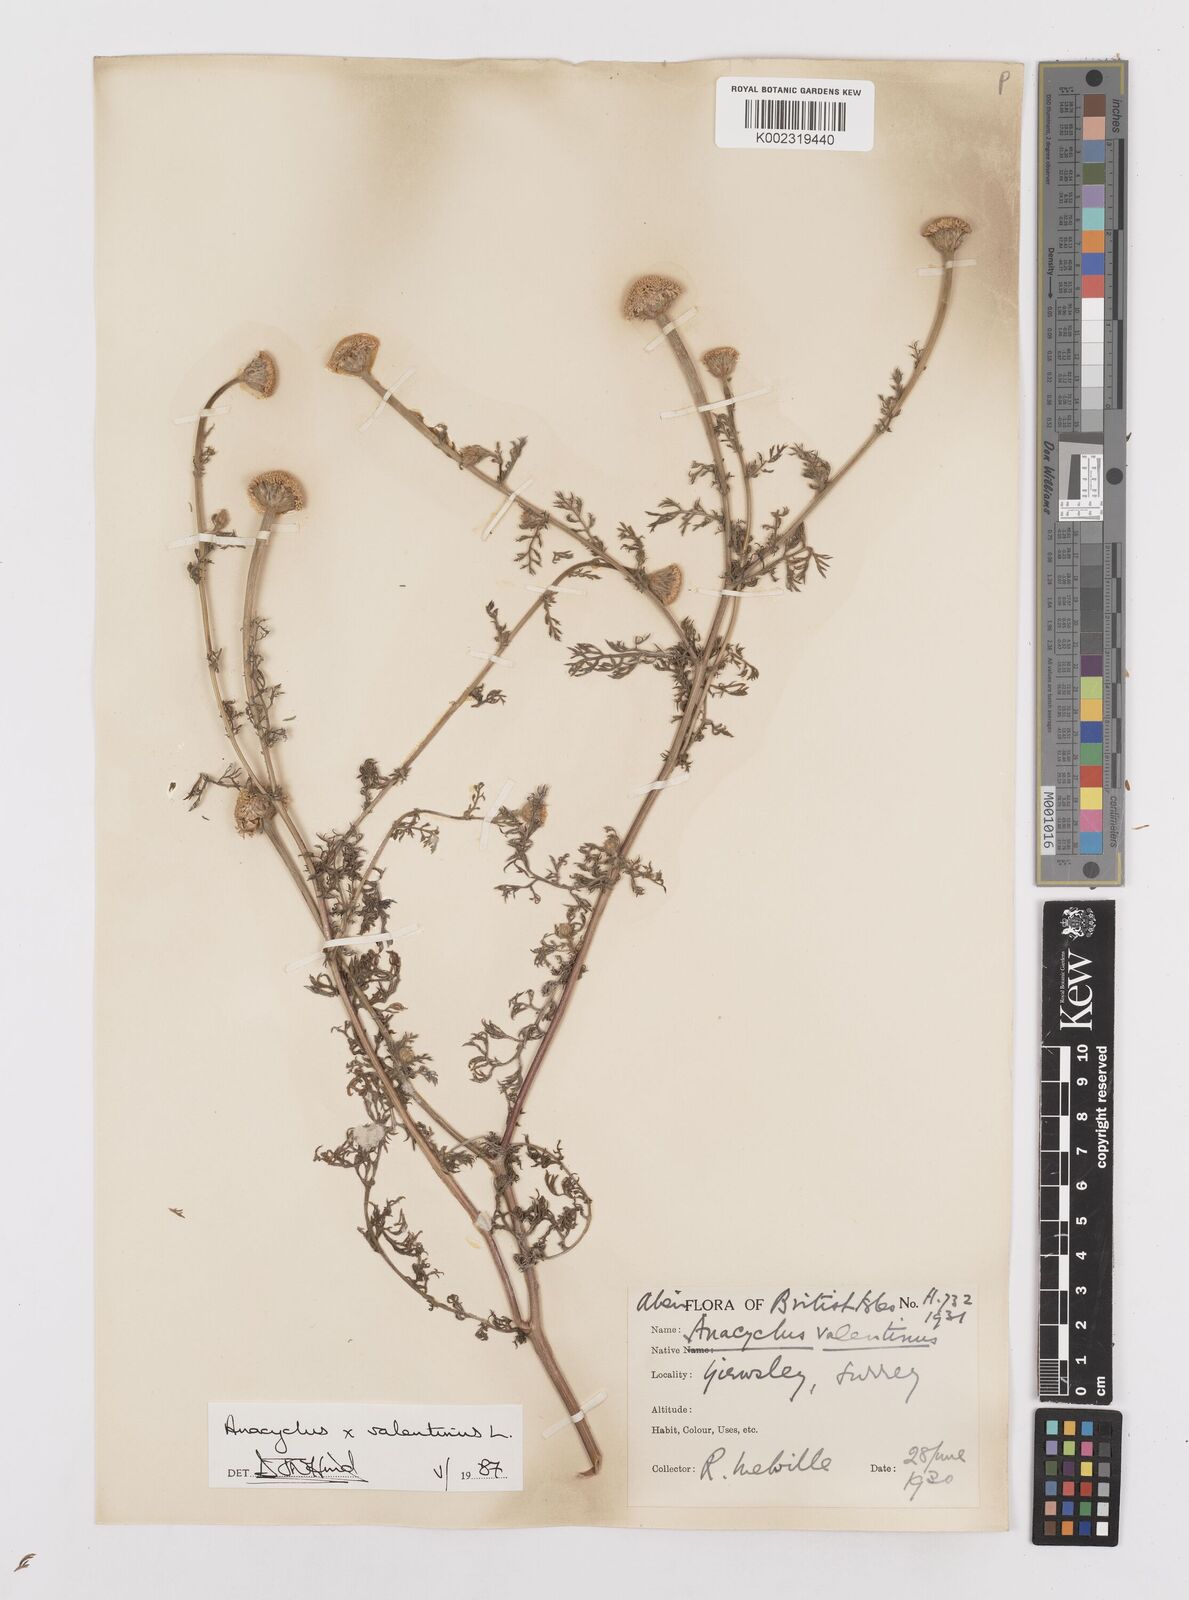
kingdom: Plantae
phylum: Tracheophyta
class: Magnoliopsida
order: Asterales
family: Asteraceae
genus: Anacyclus
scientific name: Anacyclus valentinus
